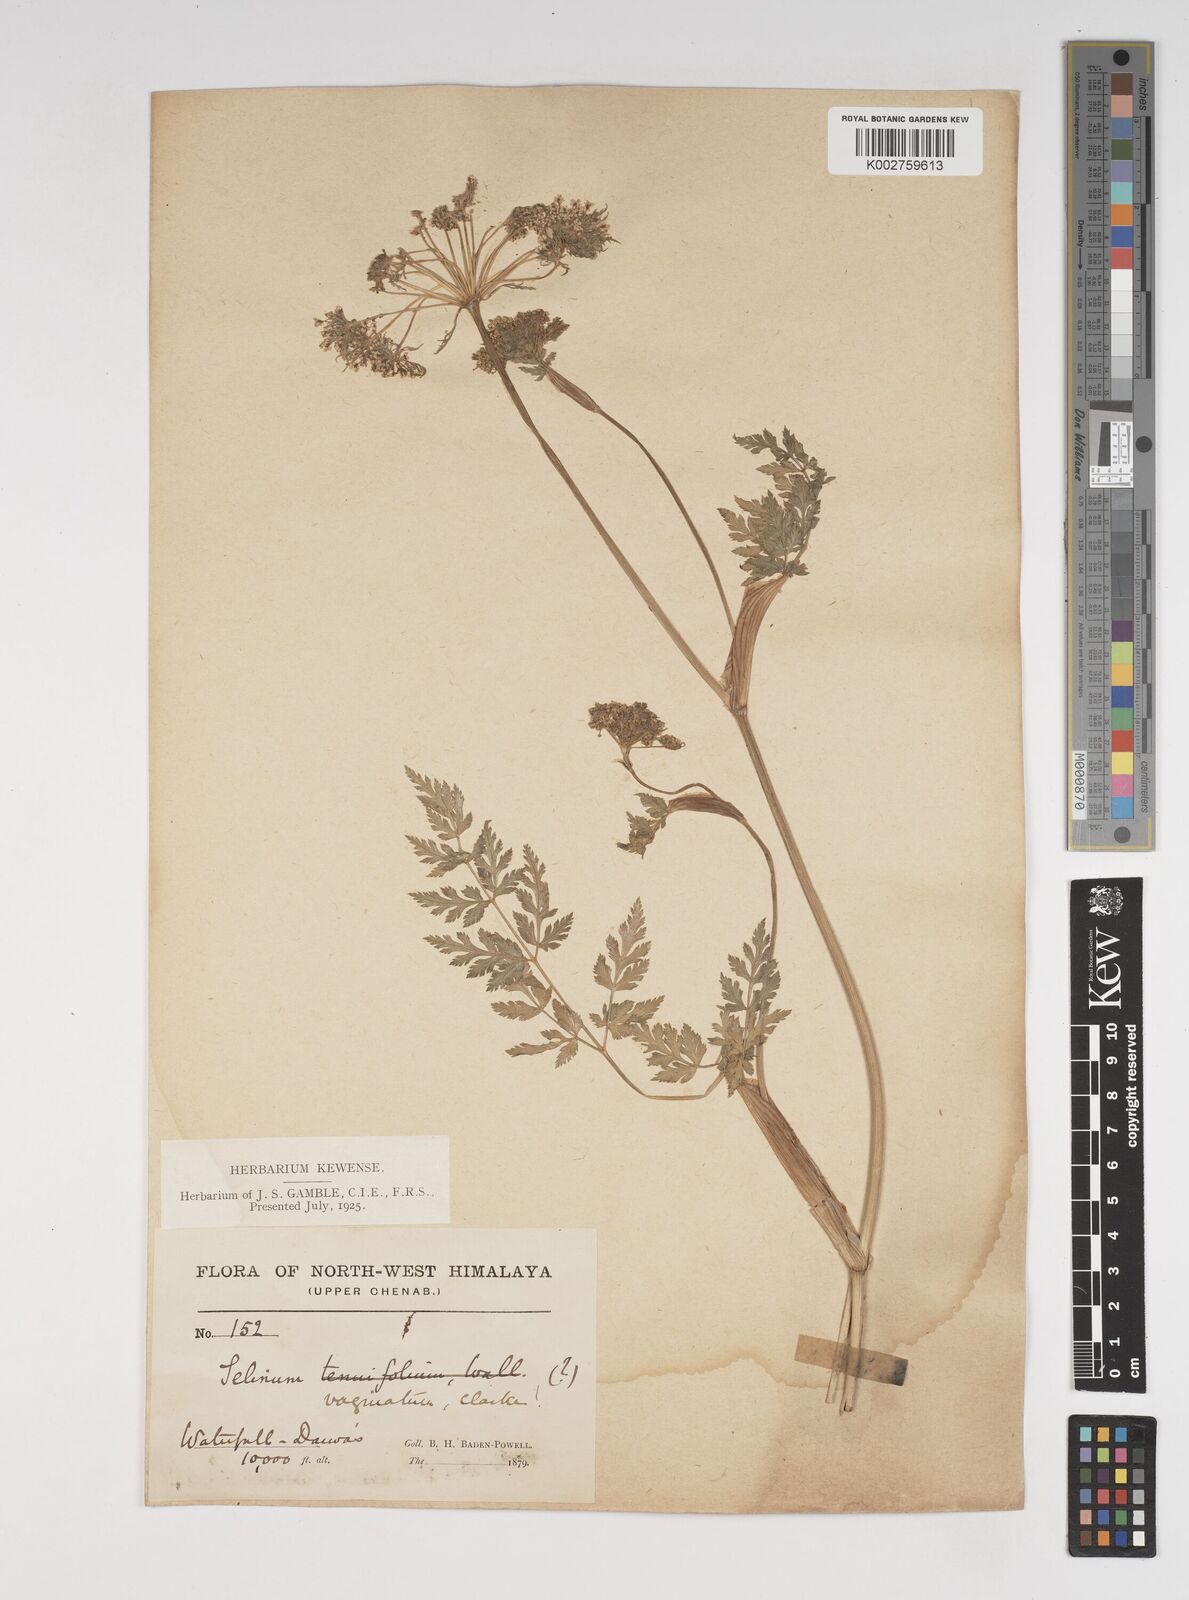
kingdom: Plantae
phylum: Tracheophyta
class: Magnoliopsida
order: Apiales
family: Apiaceae
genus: Selinum
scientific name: Selinum vaginatum
